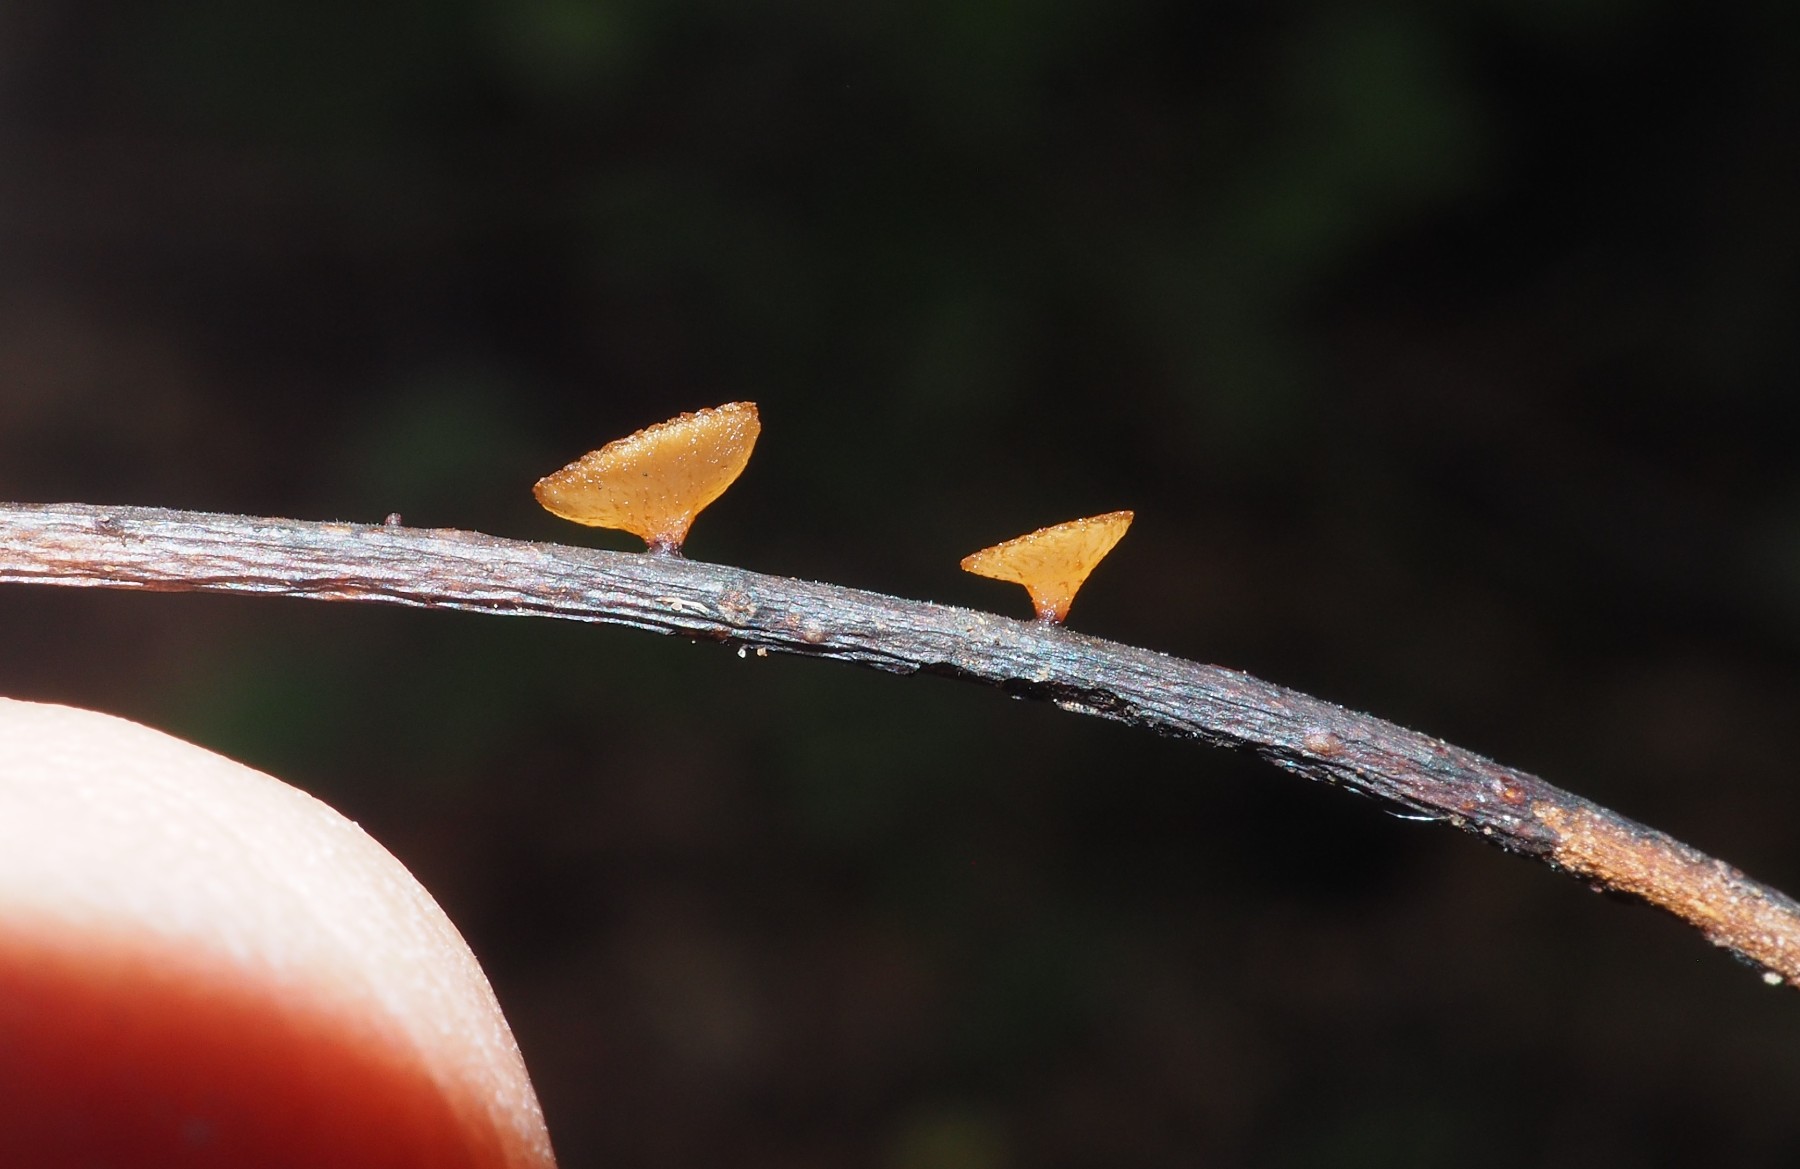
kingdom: Fungi
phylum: Ascomycota
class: Leotiomycetes
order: Helotiales
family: Rutstroemiaceae
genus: Rutstroemia
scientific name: Rutstroemia sydowiana
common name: egeblads-brunskive
